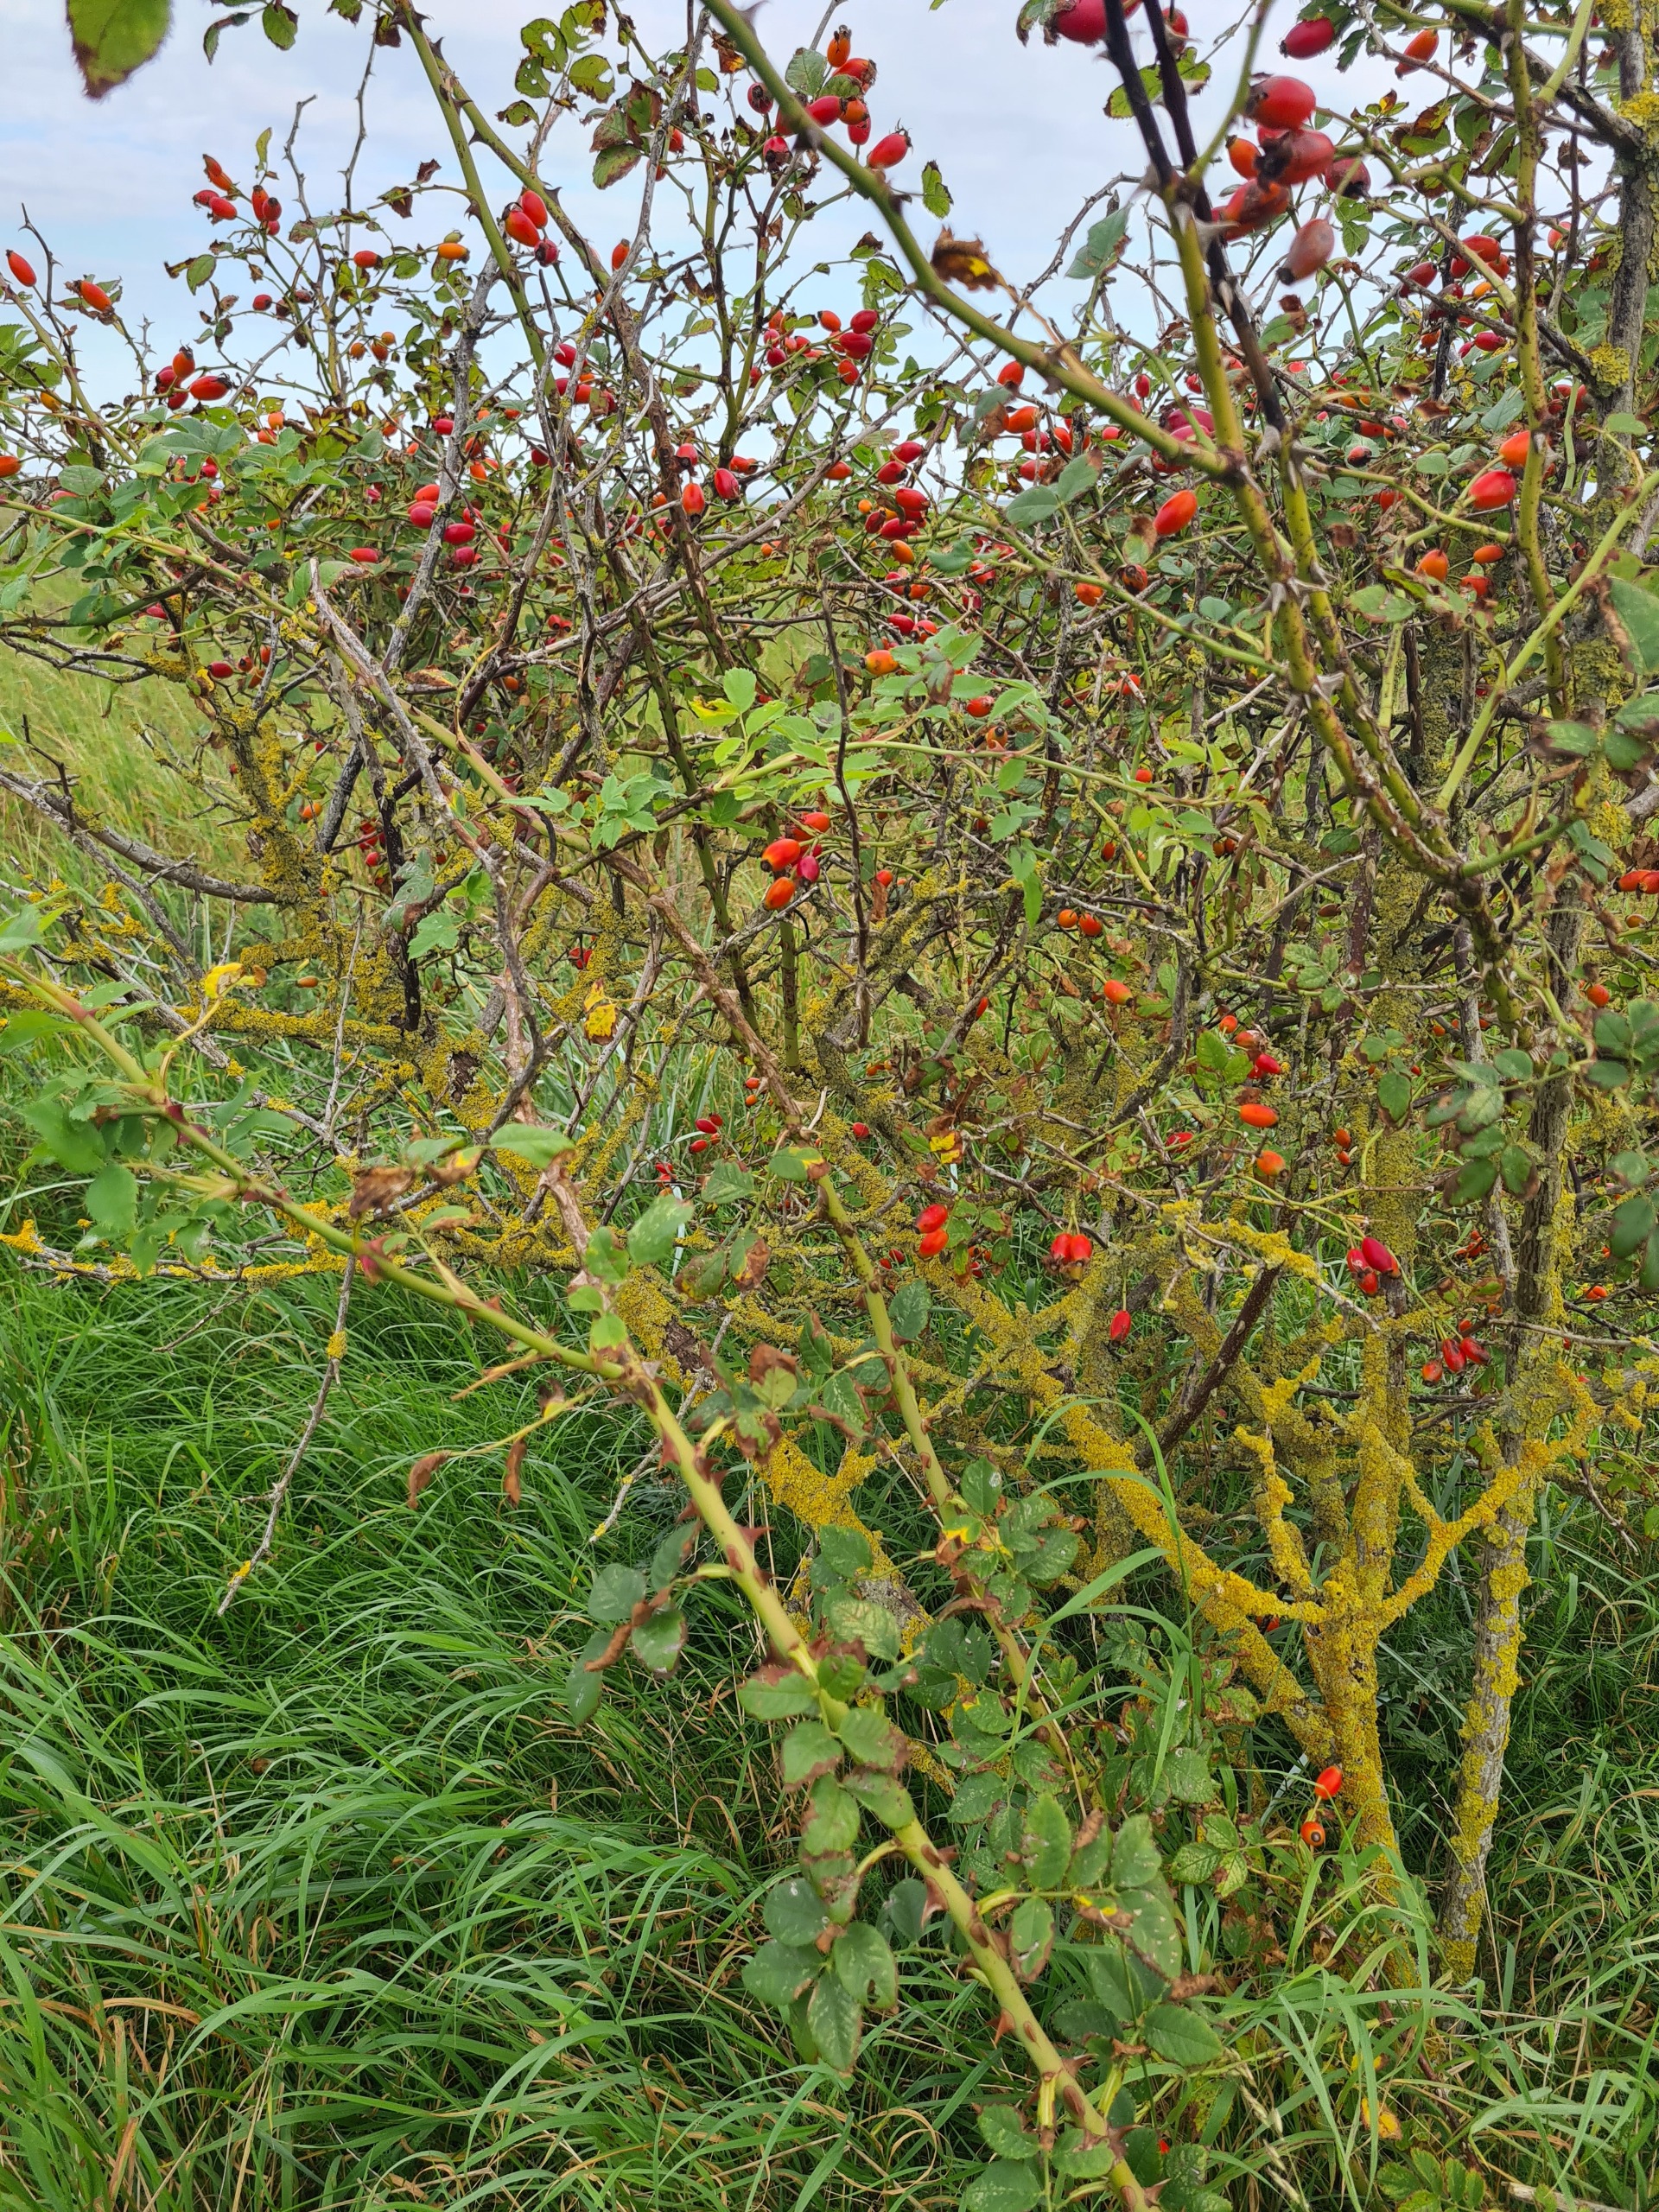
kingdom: Plantae
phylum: Tracheophyta
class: Magnoliopsida
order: Rosales
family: Rosaceae
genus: Rosa
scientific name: Rosa canina
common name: Glat hunde-rose
